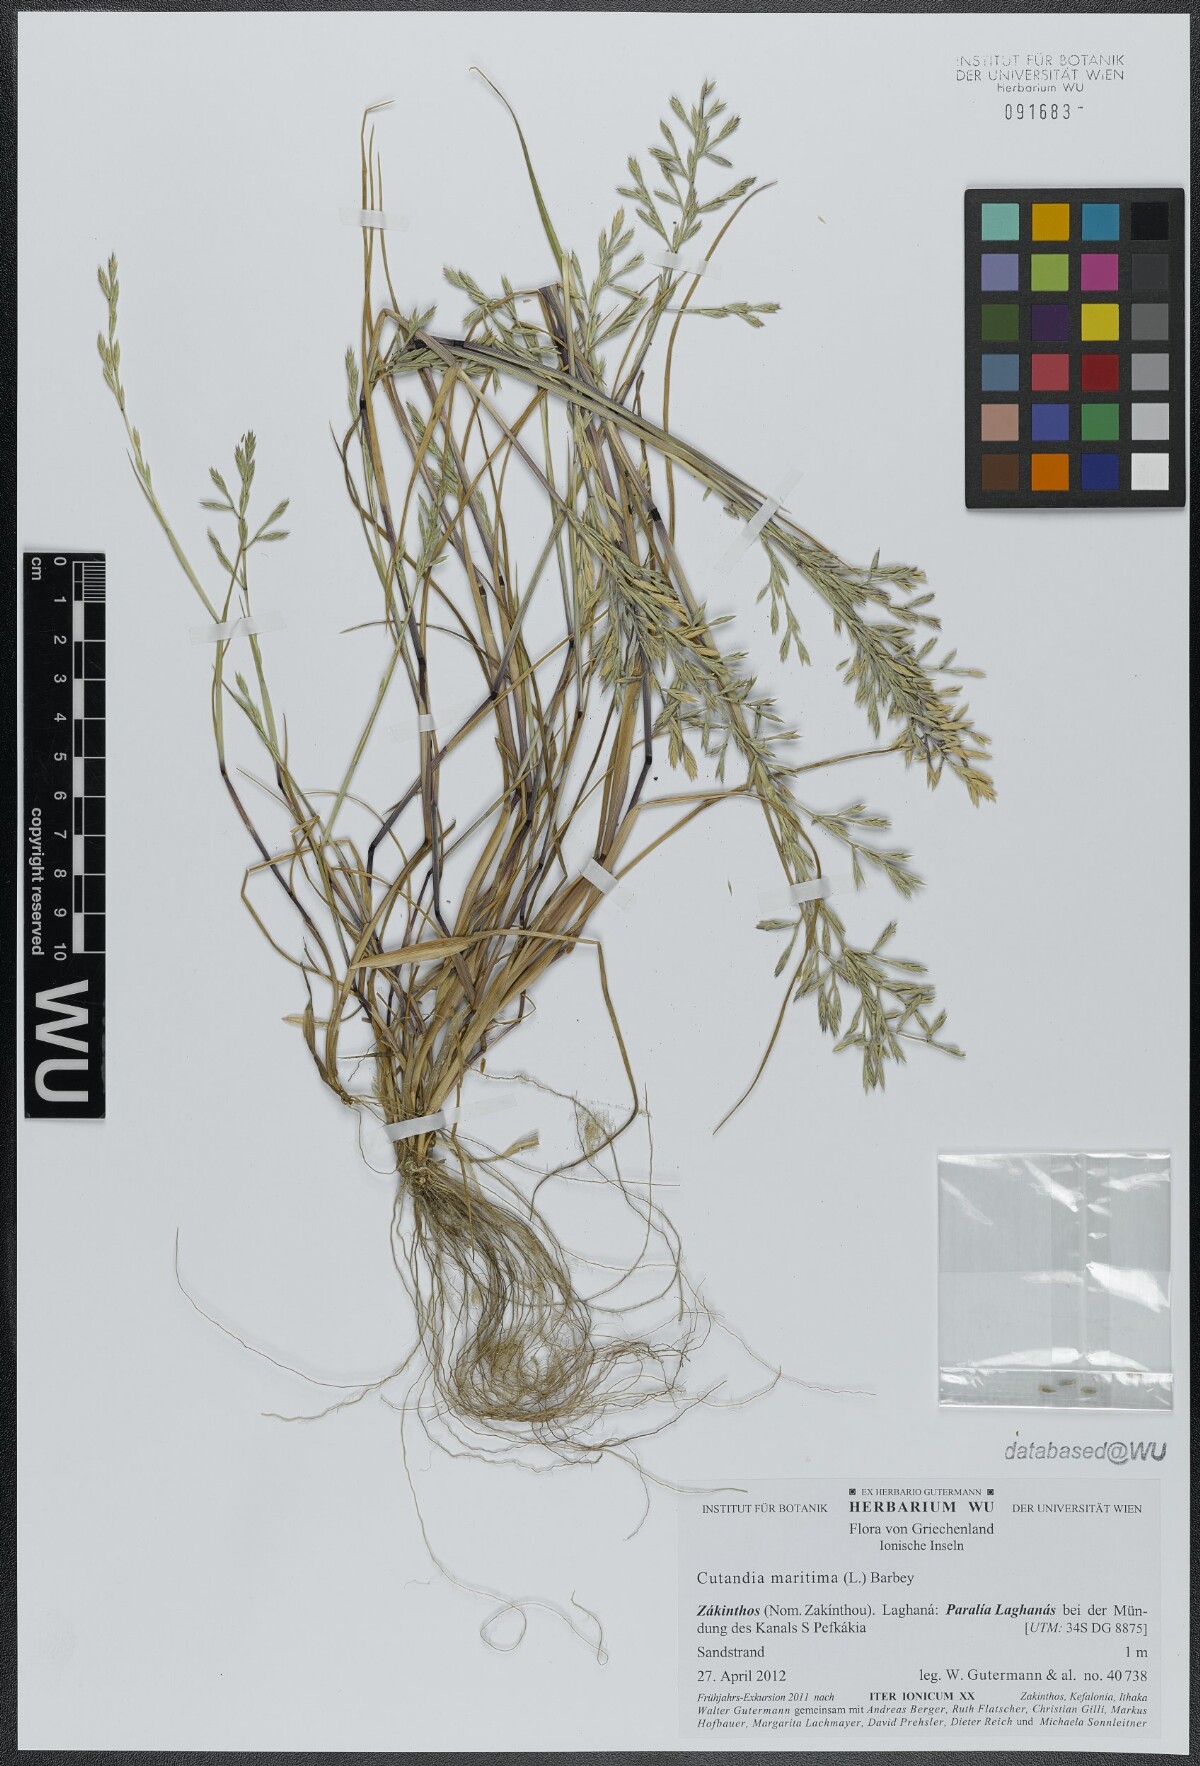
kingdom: Plantae
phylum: Tracheophyta
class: Liliopsida
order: Poales
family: Poaceae
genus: Cutandia
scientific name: Cutandia maritima
